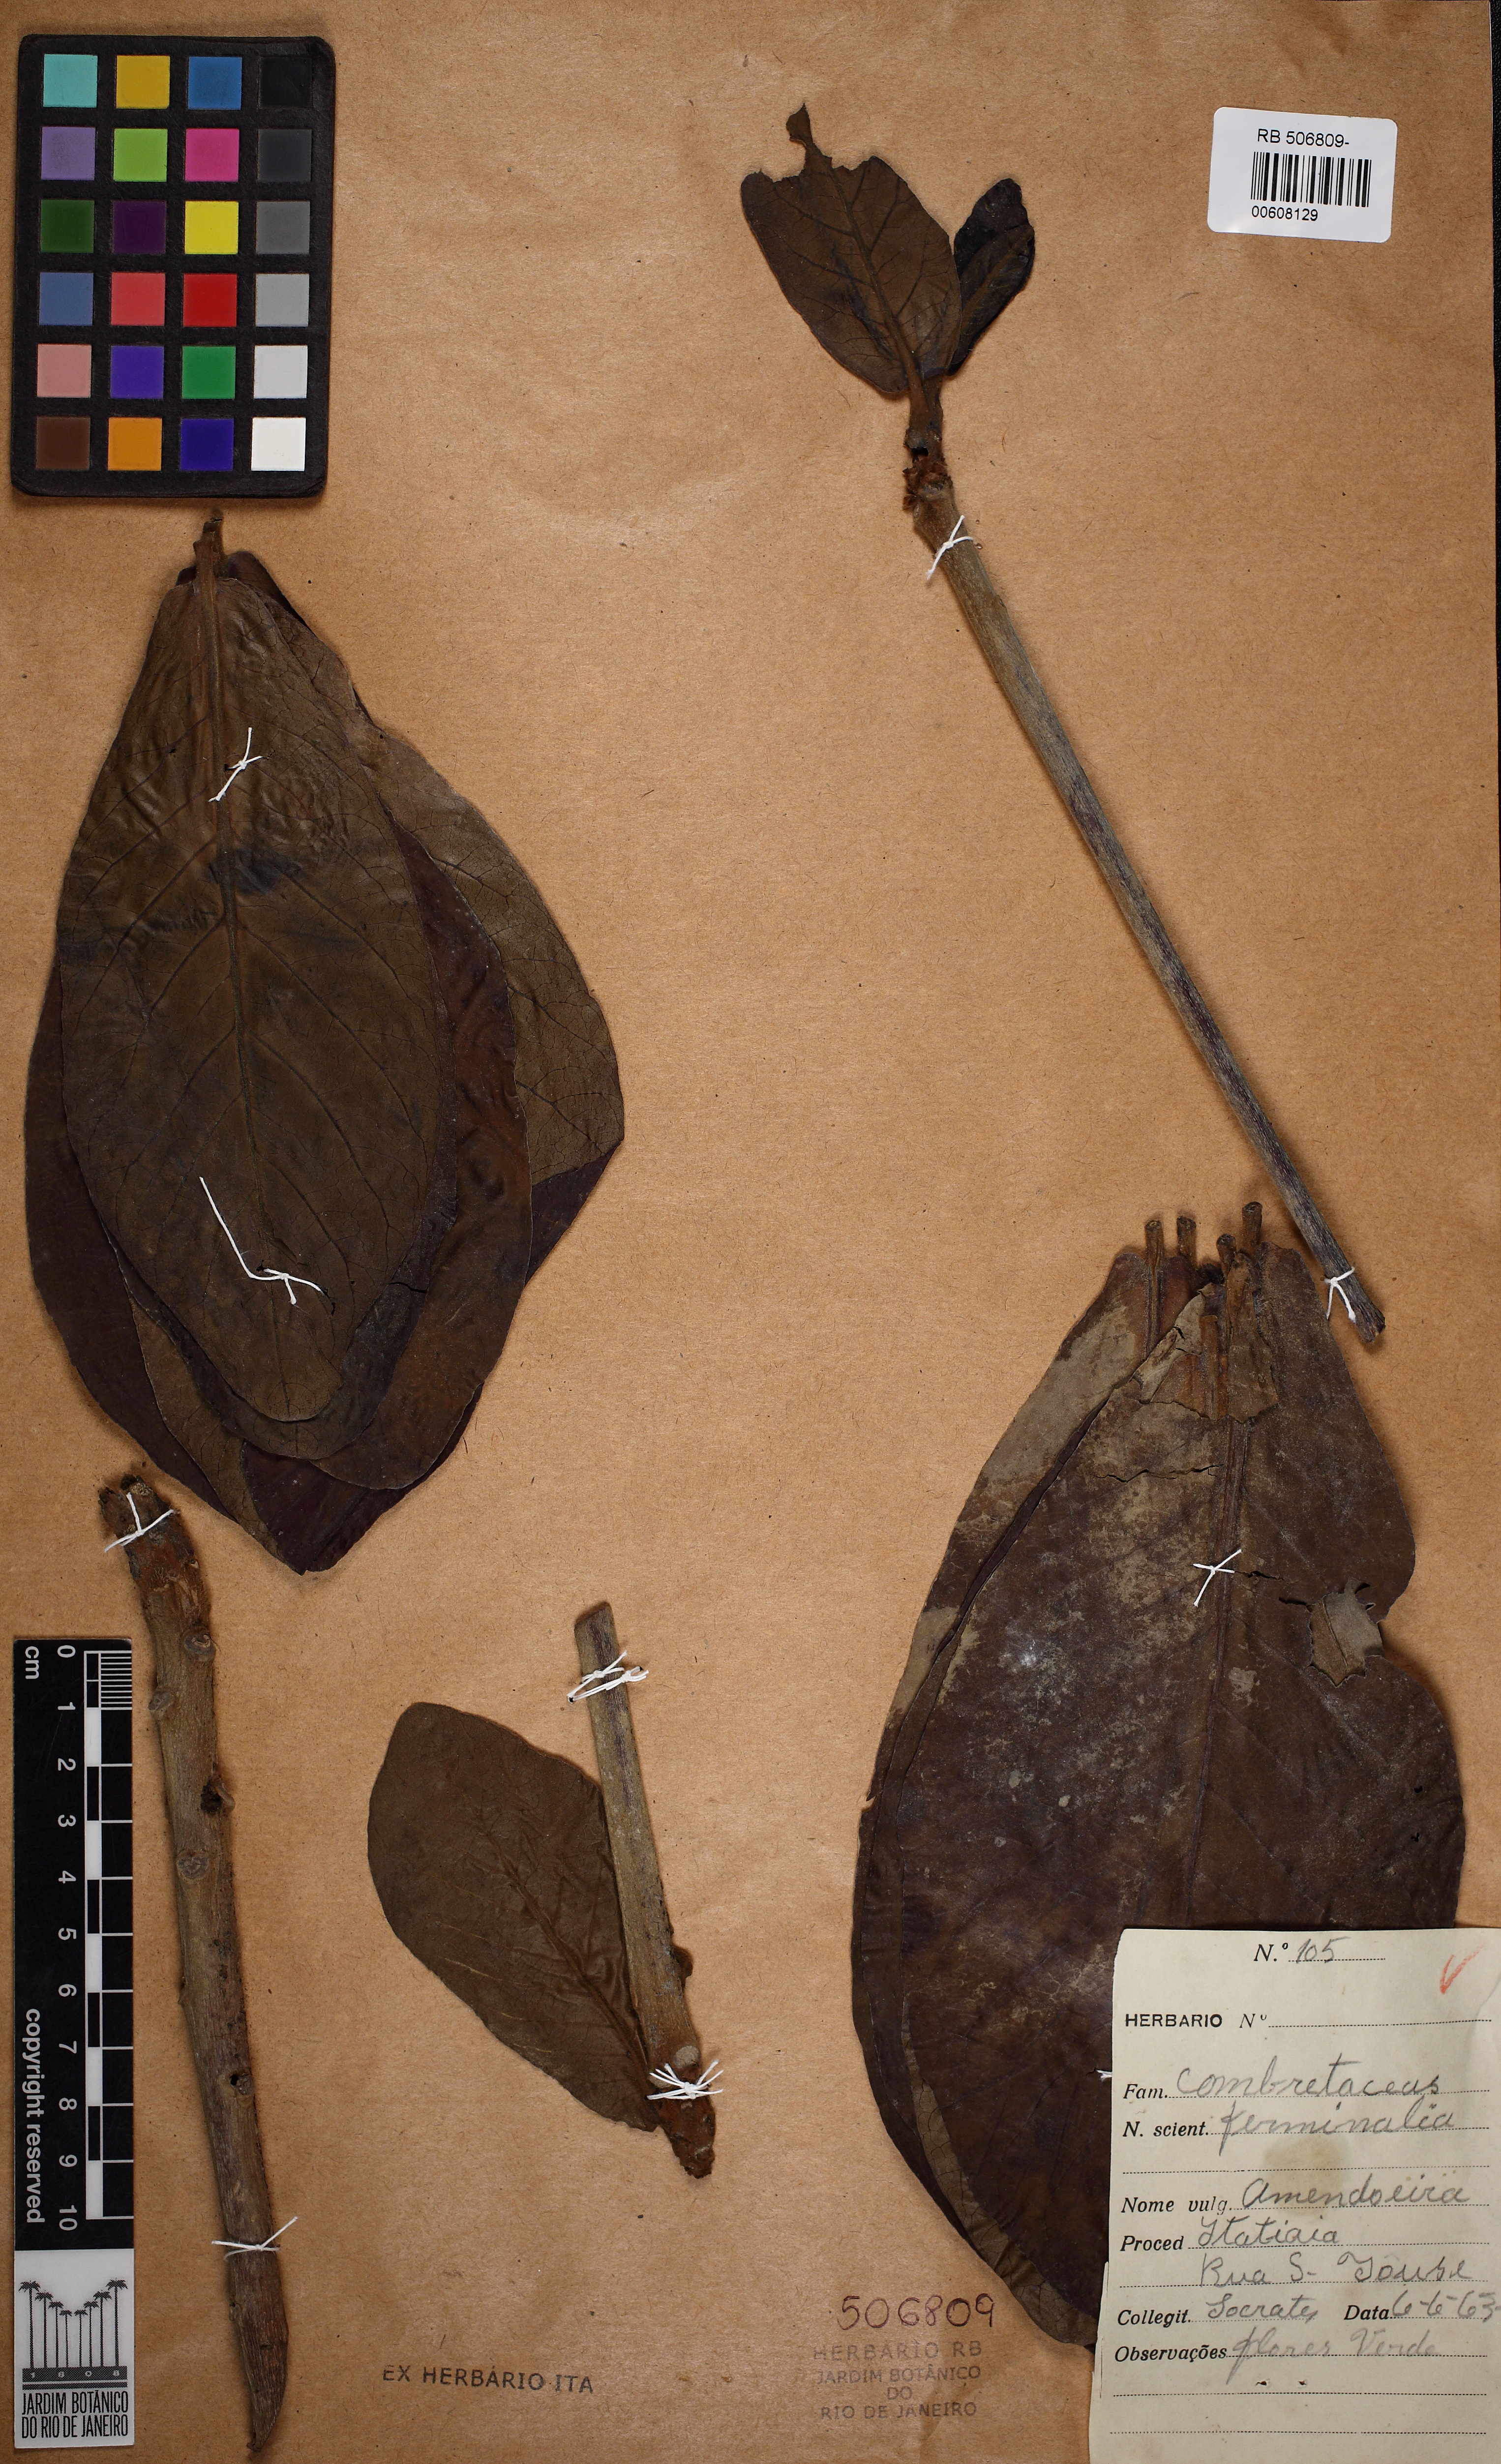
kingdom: Plantae
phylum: Tracheophyta
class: Magnoliopsida
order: Myrtales
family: Combretaceae
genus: Terminalia
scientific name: Terminalia
